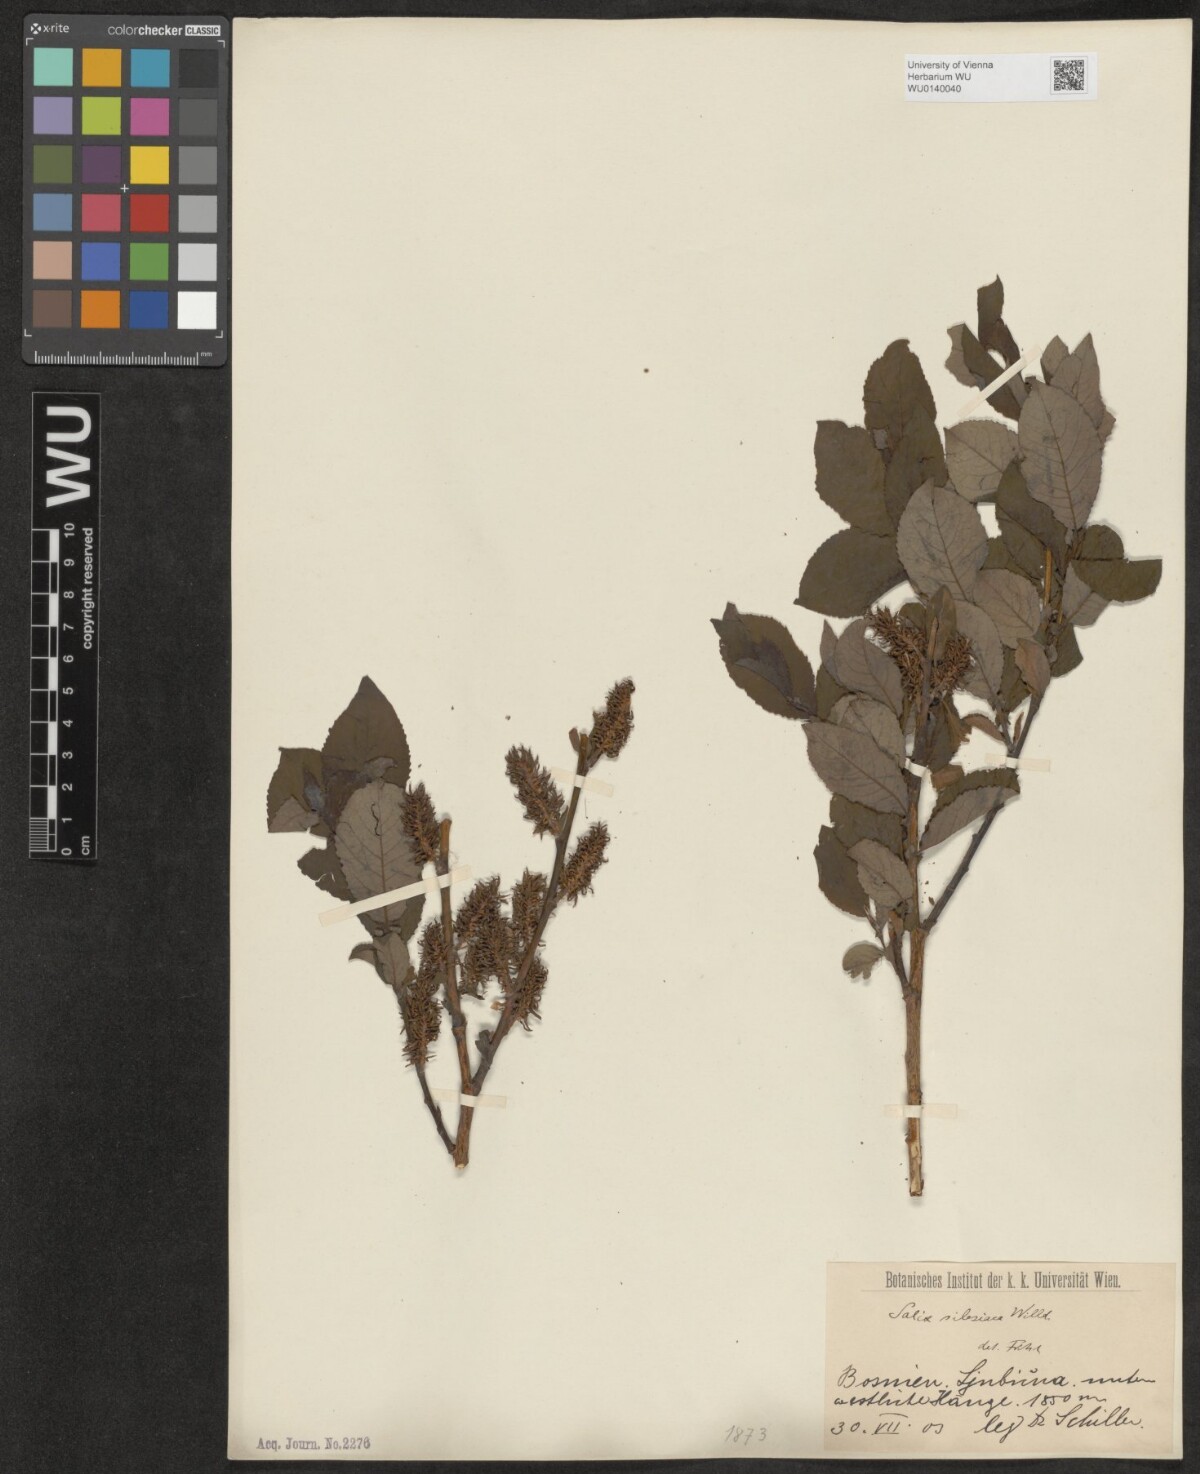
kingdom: Plantae
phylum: Tracheophyta
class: Magnoliopsida
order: Malpighiales
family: Salicaceae
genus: Salix
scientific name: Salix silesiaca
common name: Silesian willow
